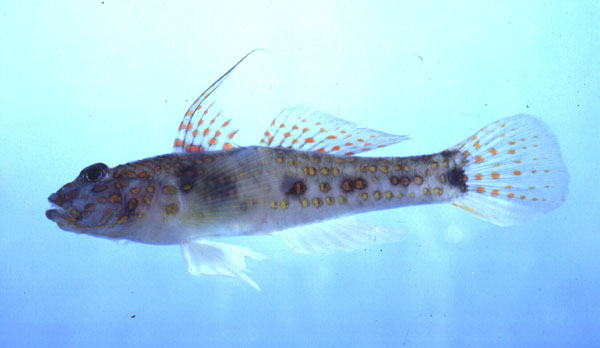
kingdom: Animalia
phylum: Chordata
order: Perciformes
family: Gobiidae
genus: Fusigobius
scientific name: Fusigobius longispinus
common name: Longspine goby
